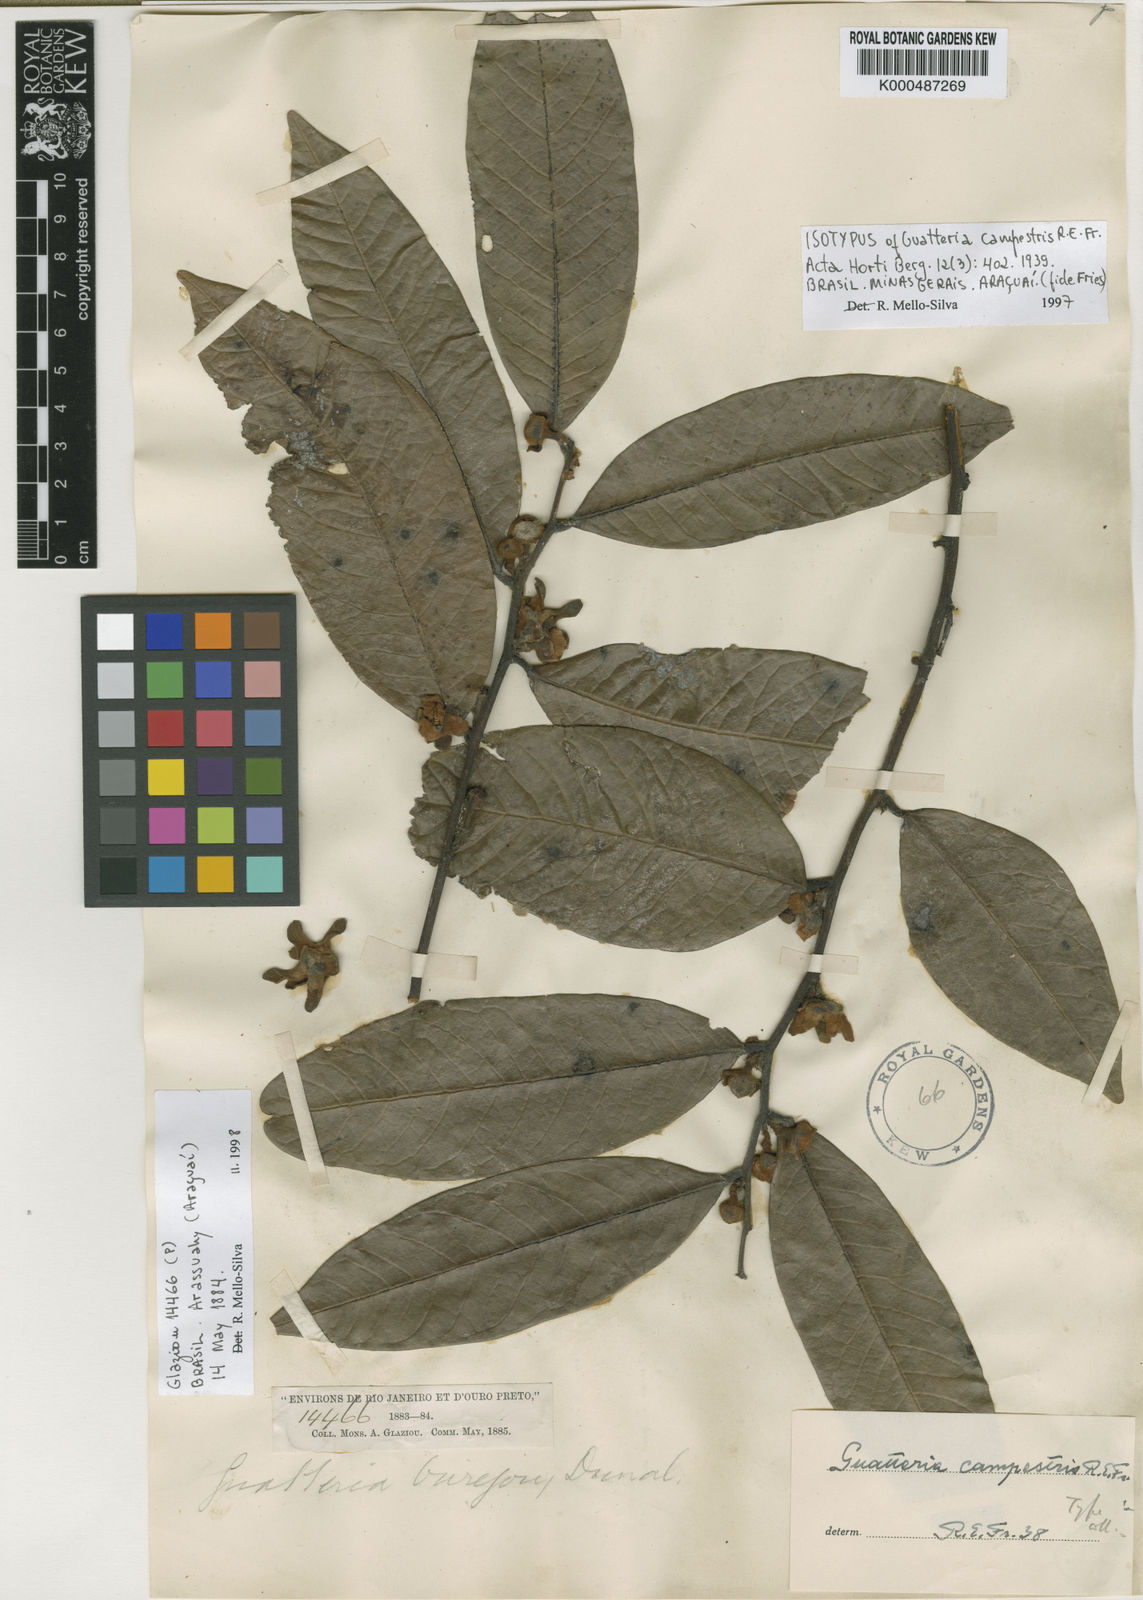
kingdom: Plantae
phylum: Tracheophyta
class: Magnoliopsida
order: Magnoliales
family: Annonaceae
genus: Guatteria
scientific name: Guatteria campestris
